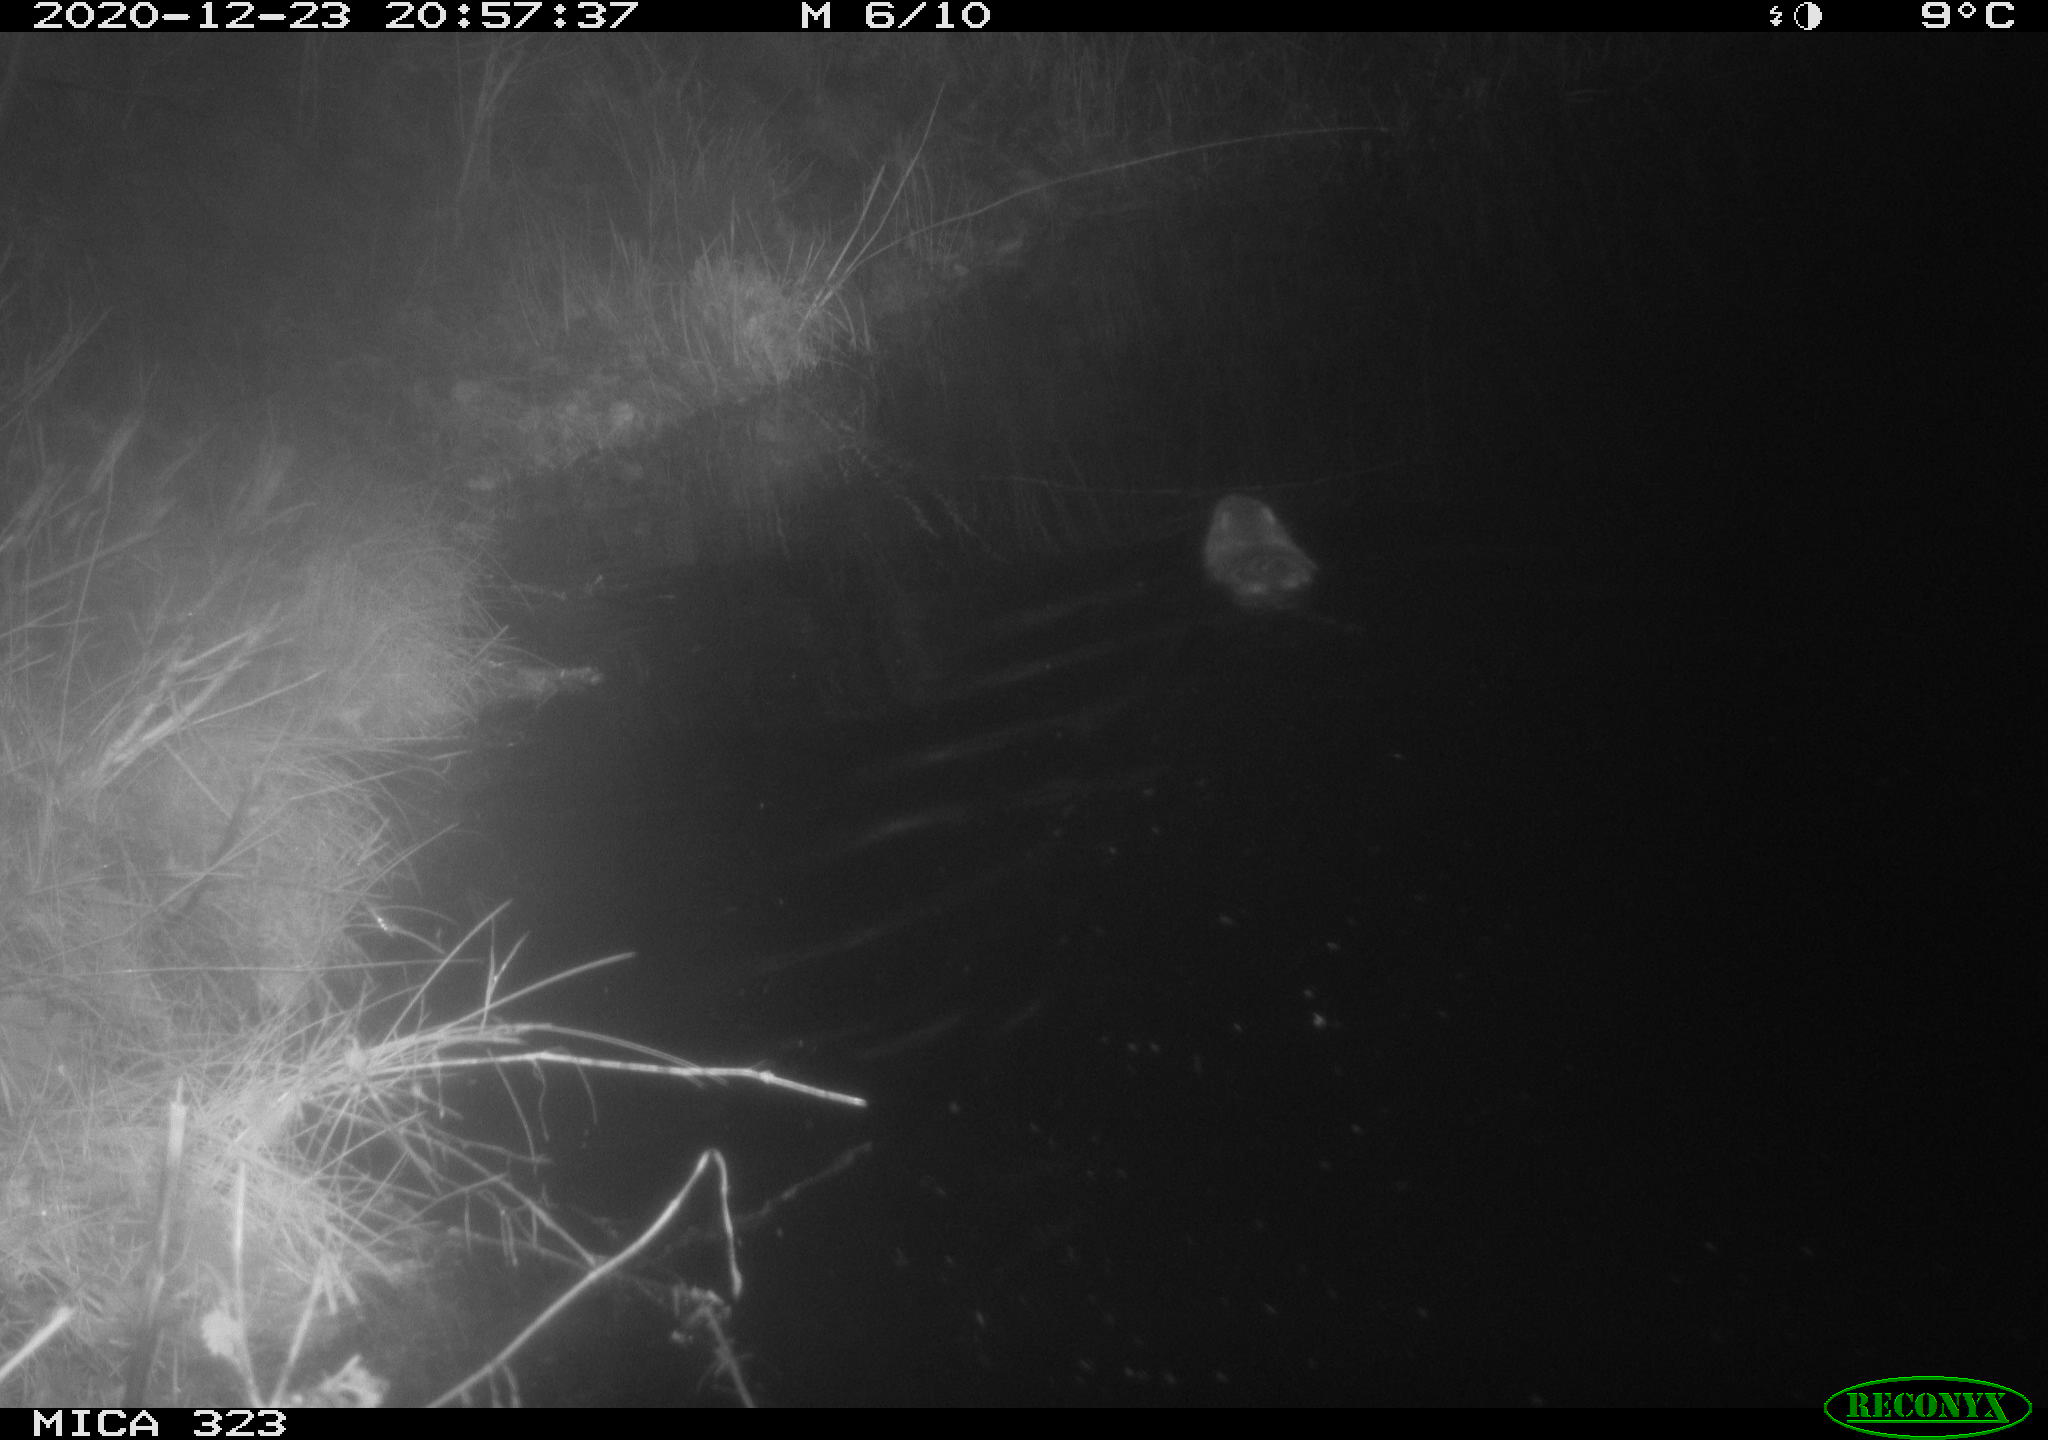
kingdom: Animalia
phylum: Chordata
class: Mammalia
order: Rodentia
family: Myocastoridae
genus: Myocastor
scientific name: Myocastor coypus
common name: Coypu
